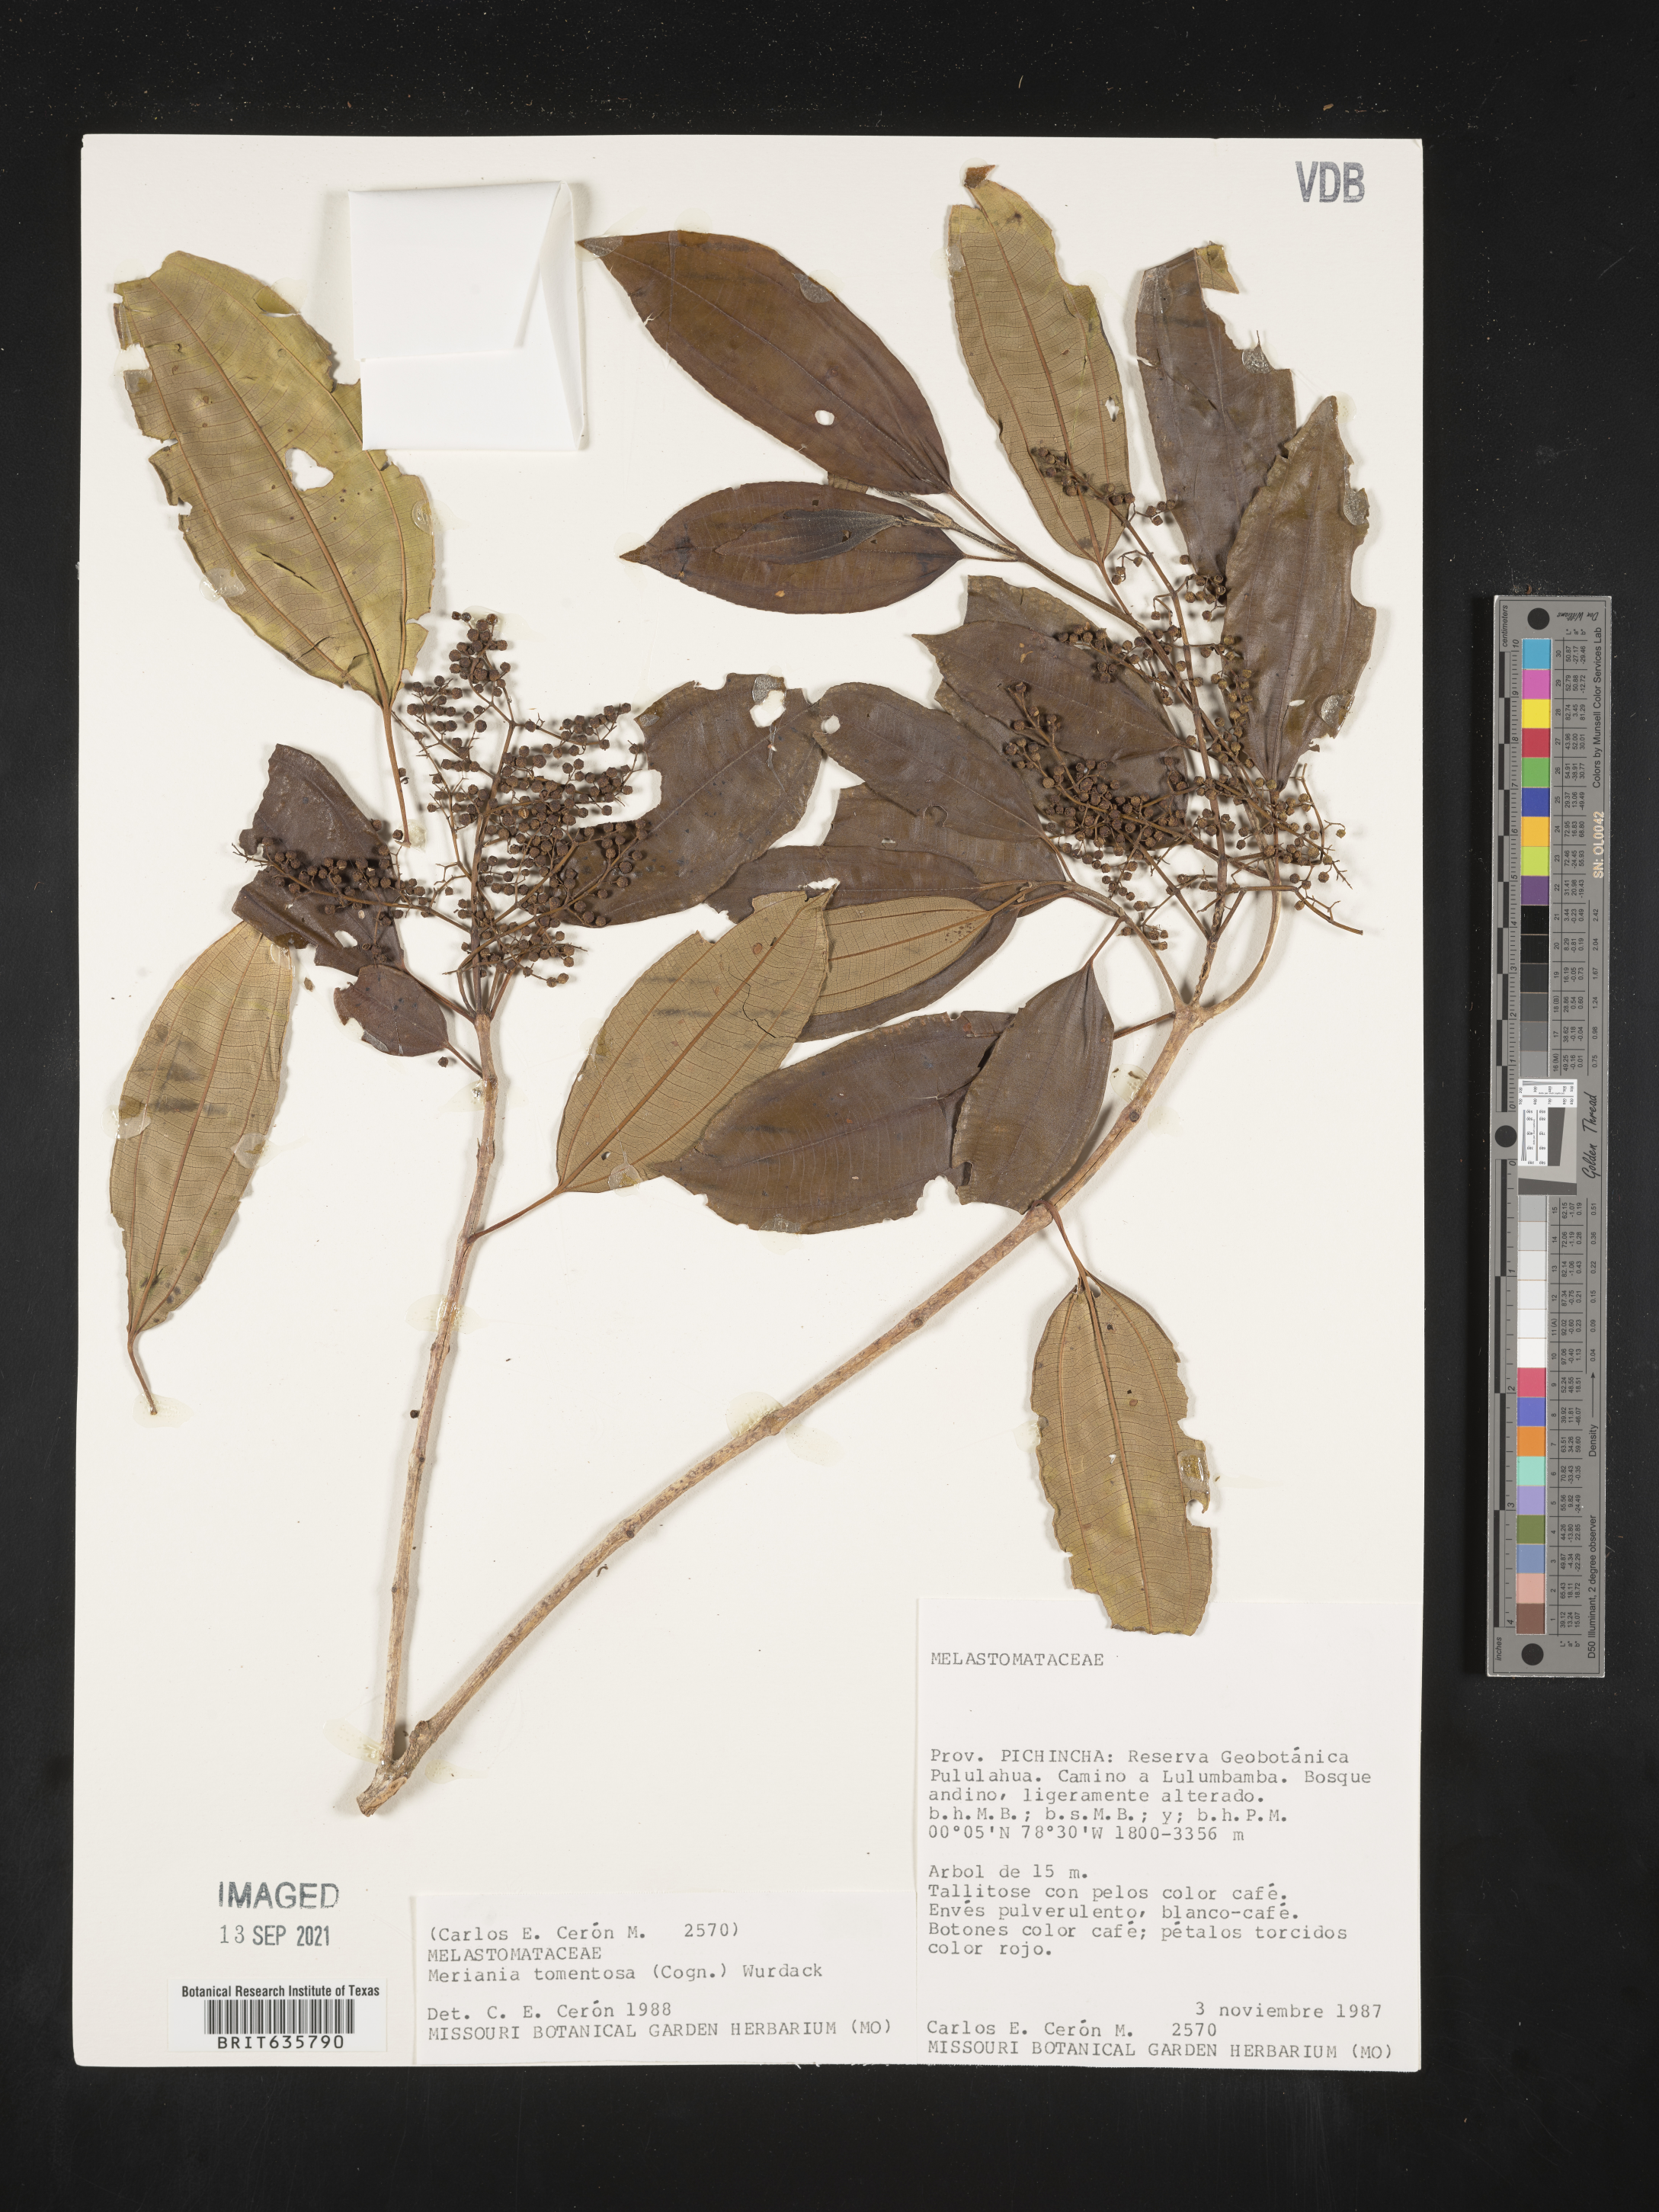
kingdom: Plantae
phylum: Tracheophyta
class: Magnoliopsida
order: Myrtales
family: Melastomataceae
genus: Meriania
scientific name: Meriania
